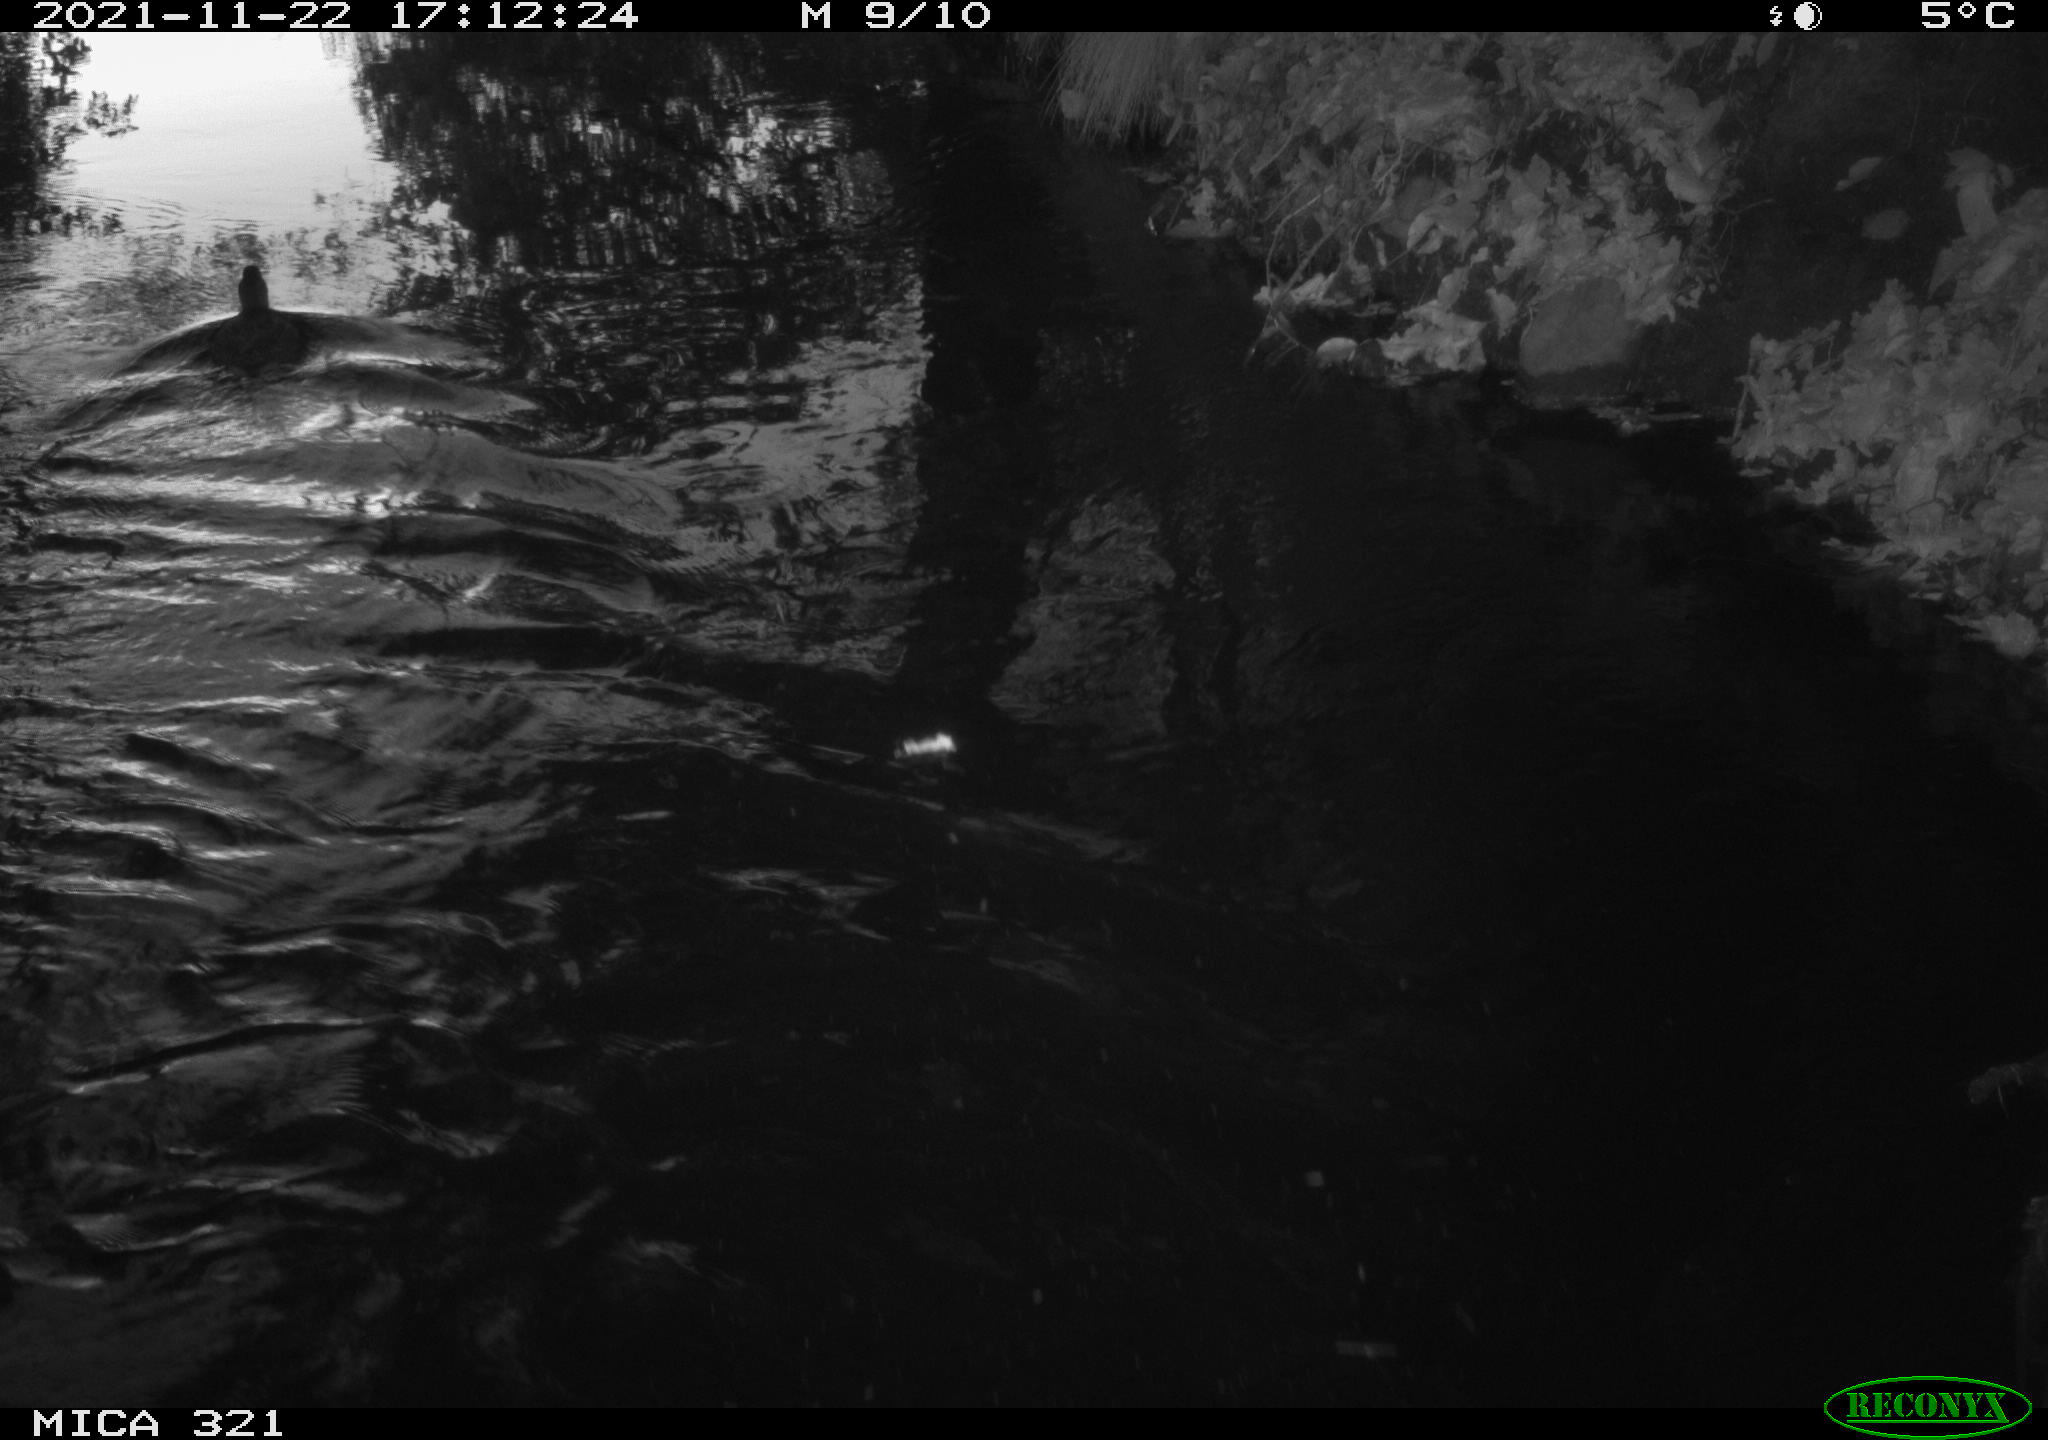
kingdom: Animalia
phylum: Chordata
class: Aves
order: Gruiformes
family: Rallidae
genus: Gallinula
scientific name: Gallinula chloropus
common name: Common moorhen
